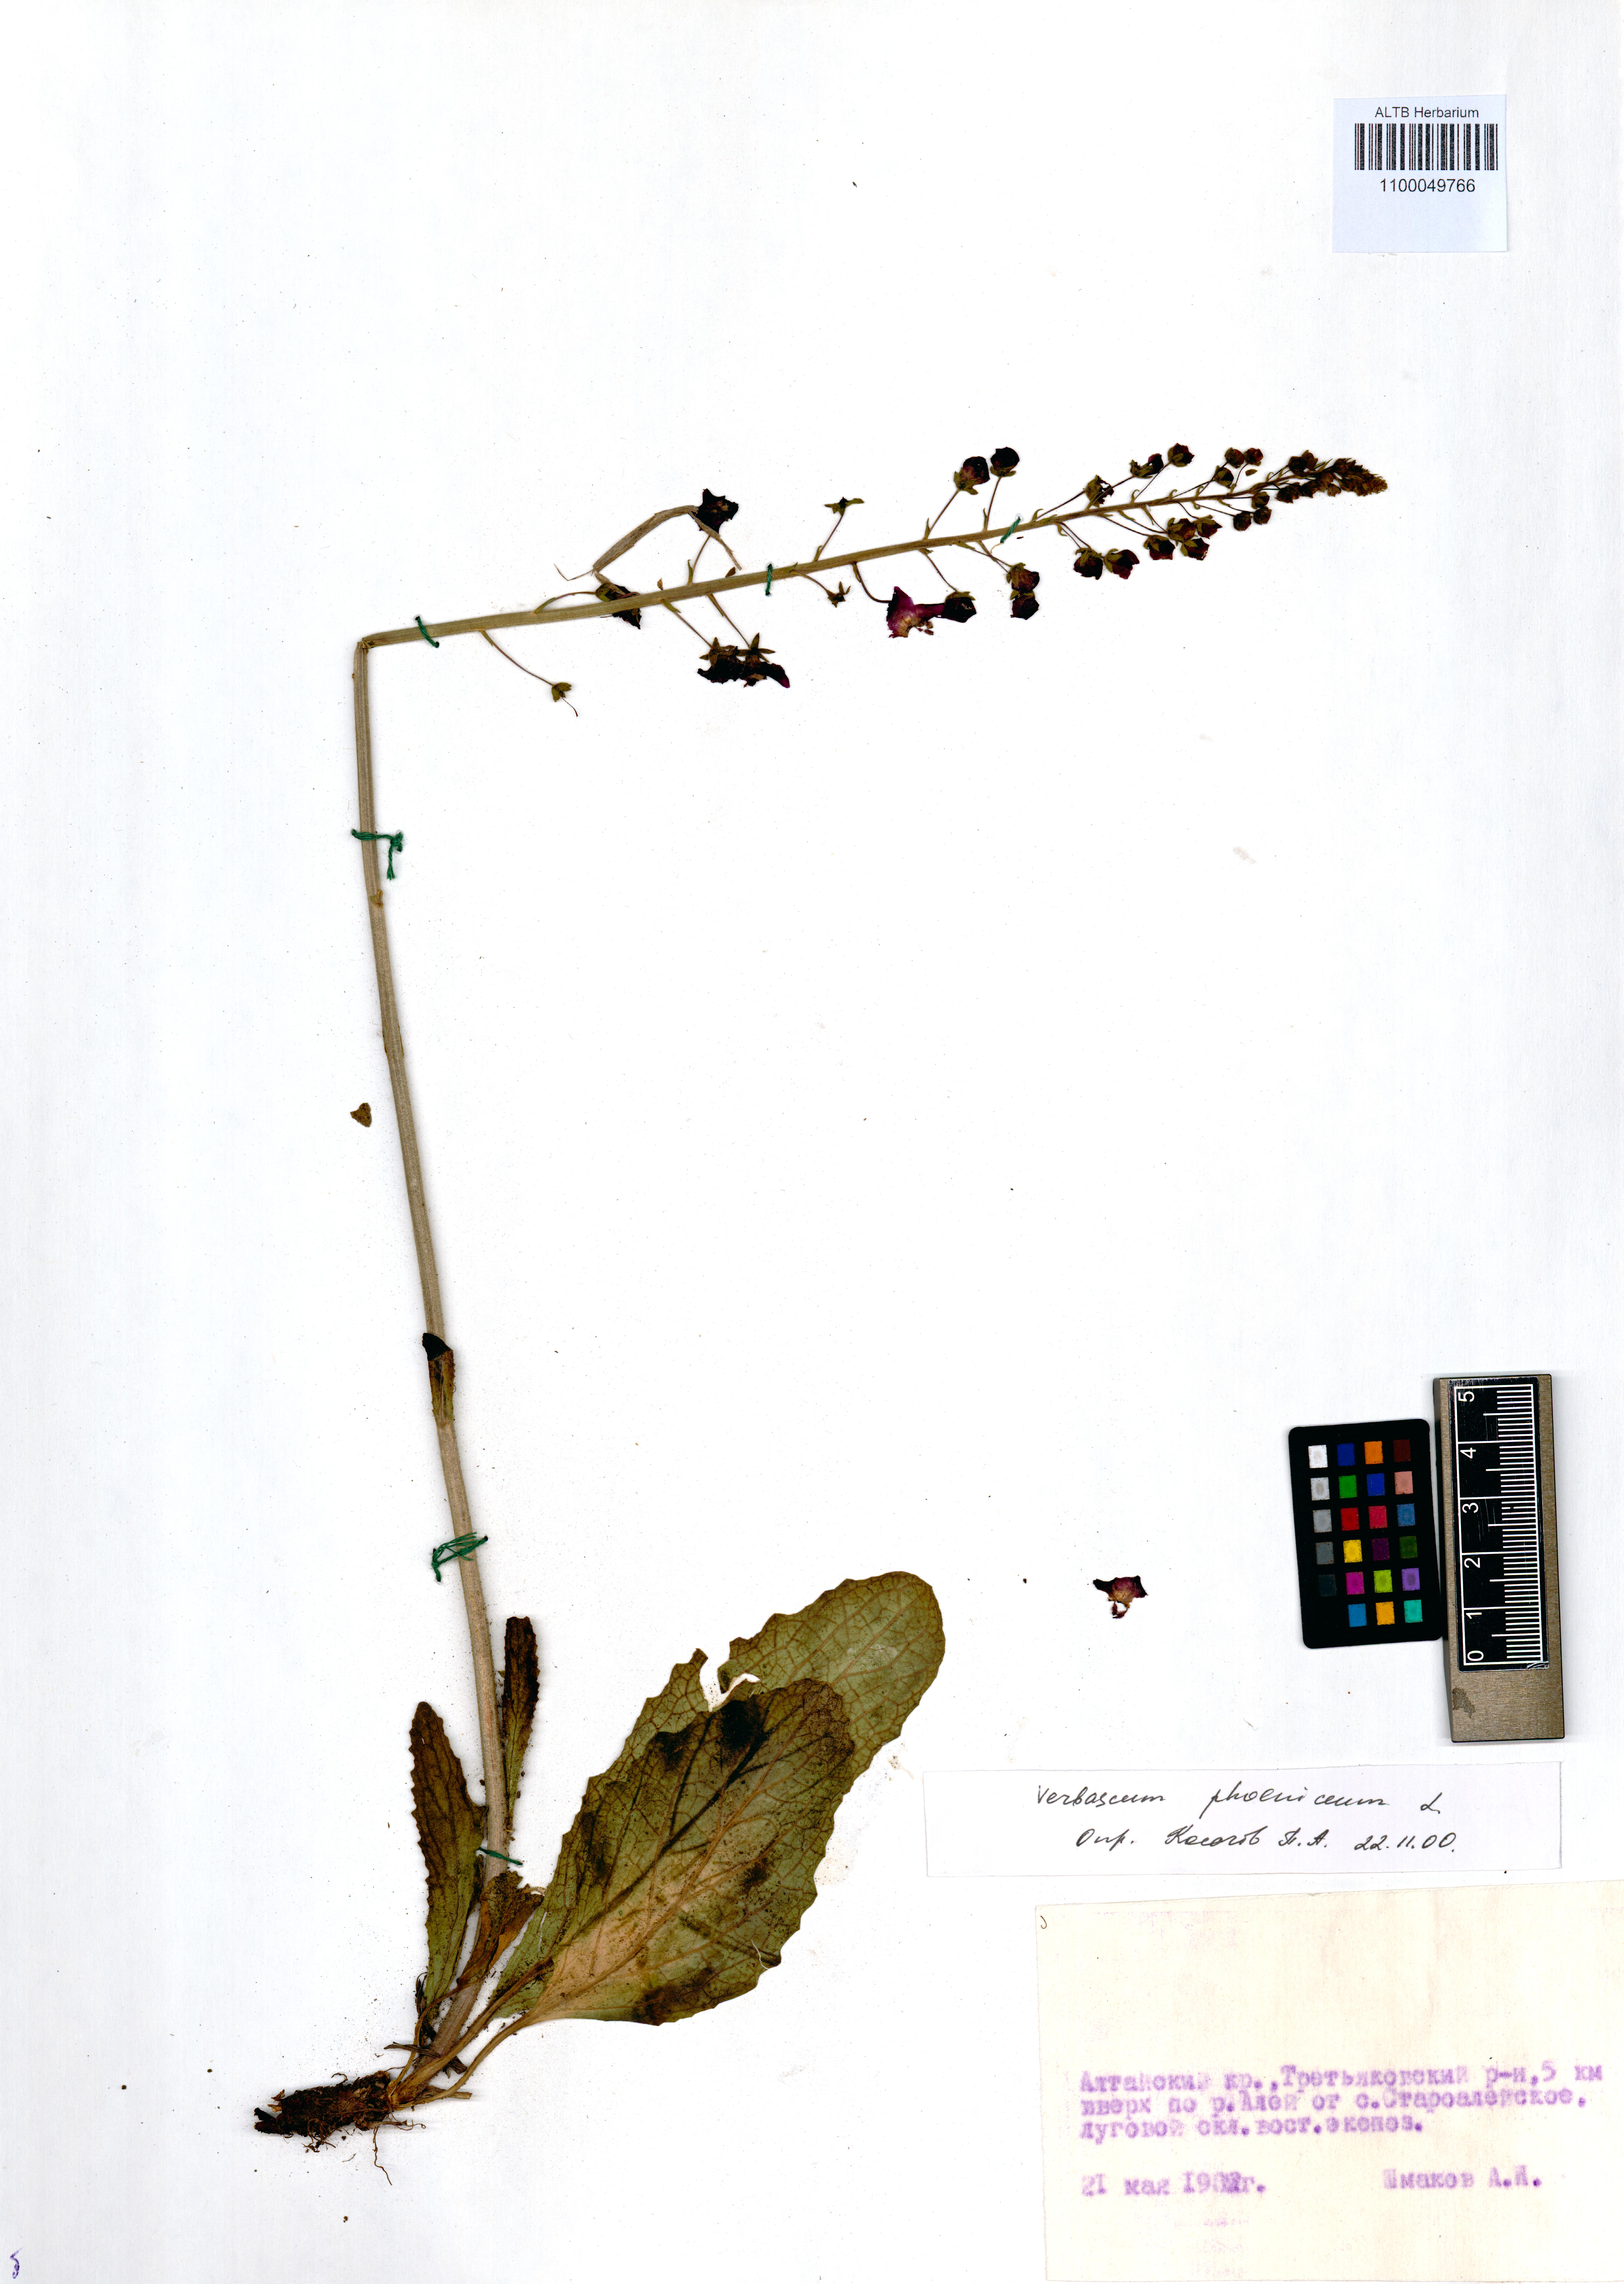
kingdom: Plantae
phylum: Tracheophyta
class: Magnoliopsida
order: Lamiales
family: Scrophulariaceae
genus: Verbascum
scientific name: Verbascum phoeniceum
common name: Purple mullein
